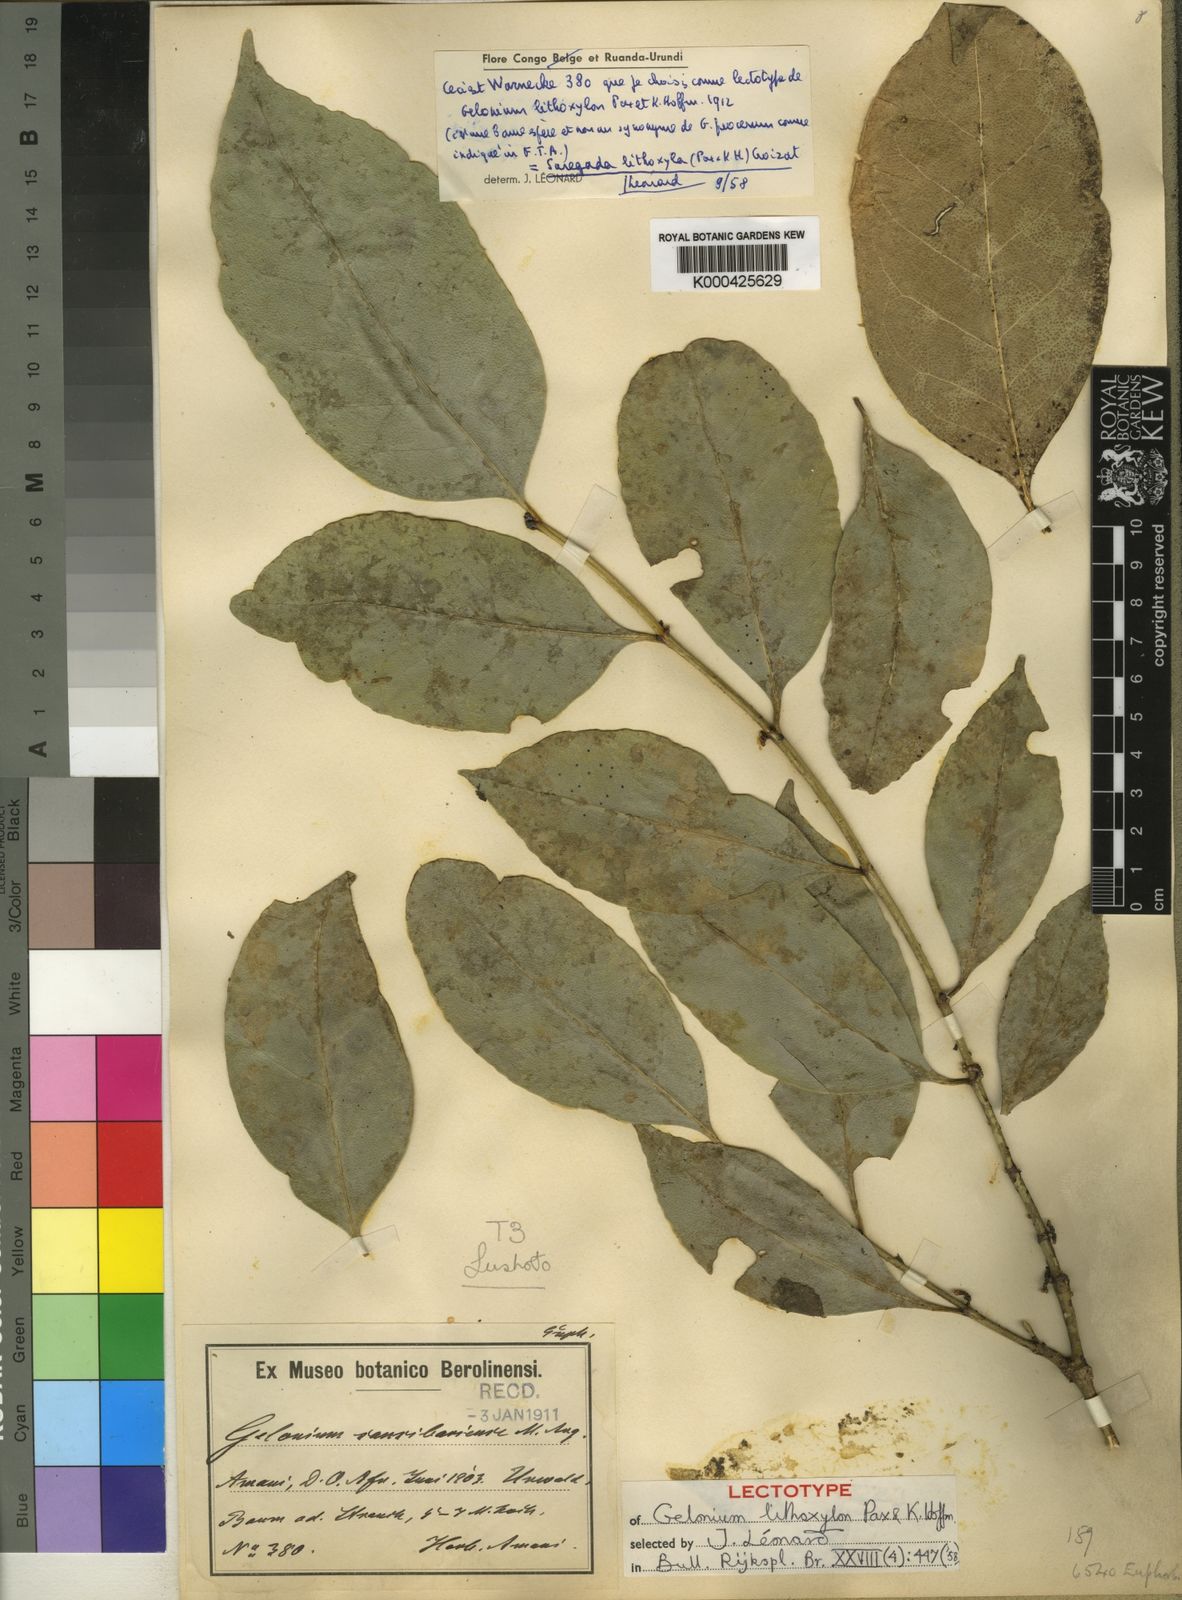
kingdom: Plantae
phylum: Tracheophyta
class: Magnoliopsida
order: Malpighiales
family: Euphorbiaceae
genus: Suregada
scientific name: Suregada procera
